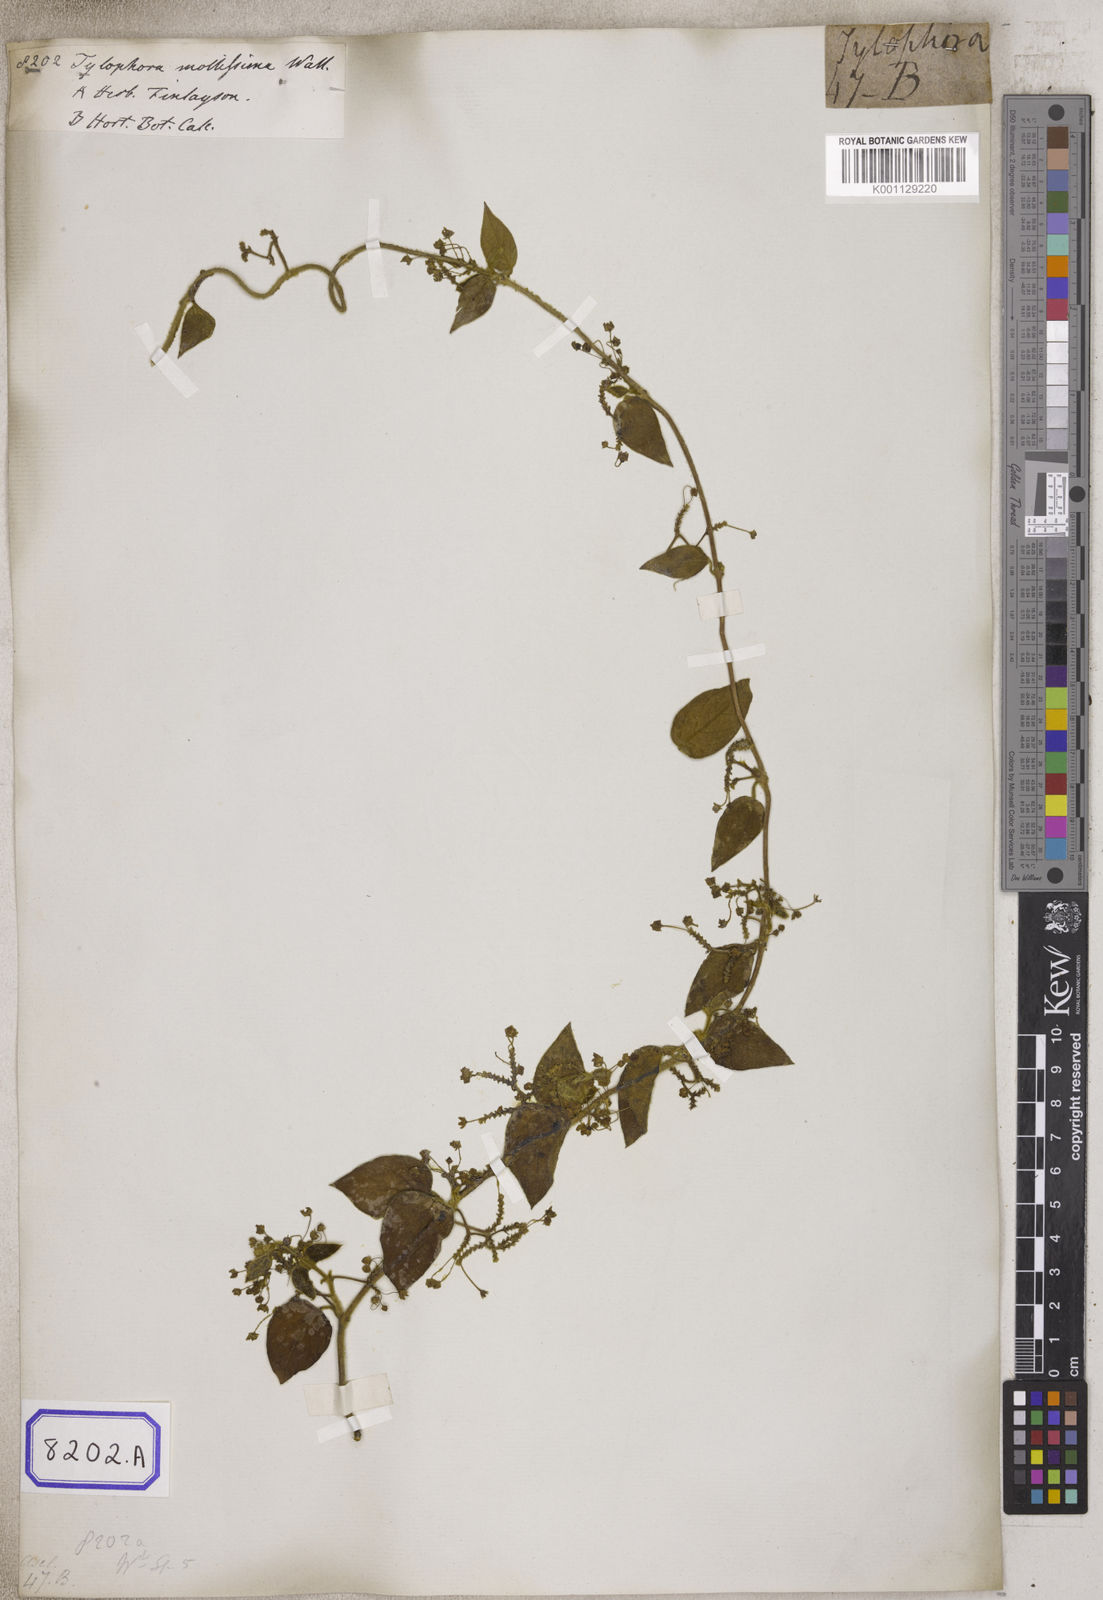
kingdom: Plantae
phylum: Tracheophyta
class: Magnoliopsida
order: Gentianales
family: Apocynaceae
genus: Vincetoxicum
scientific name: Vincetoxicum
